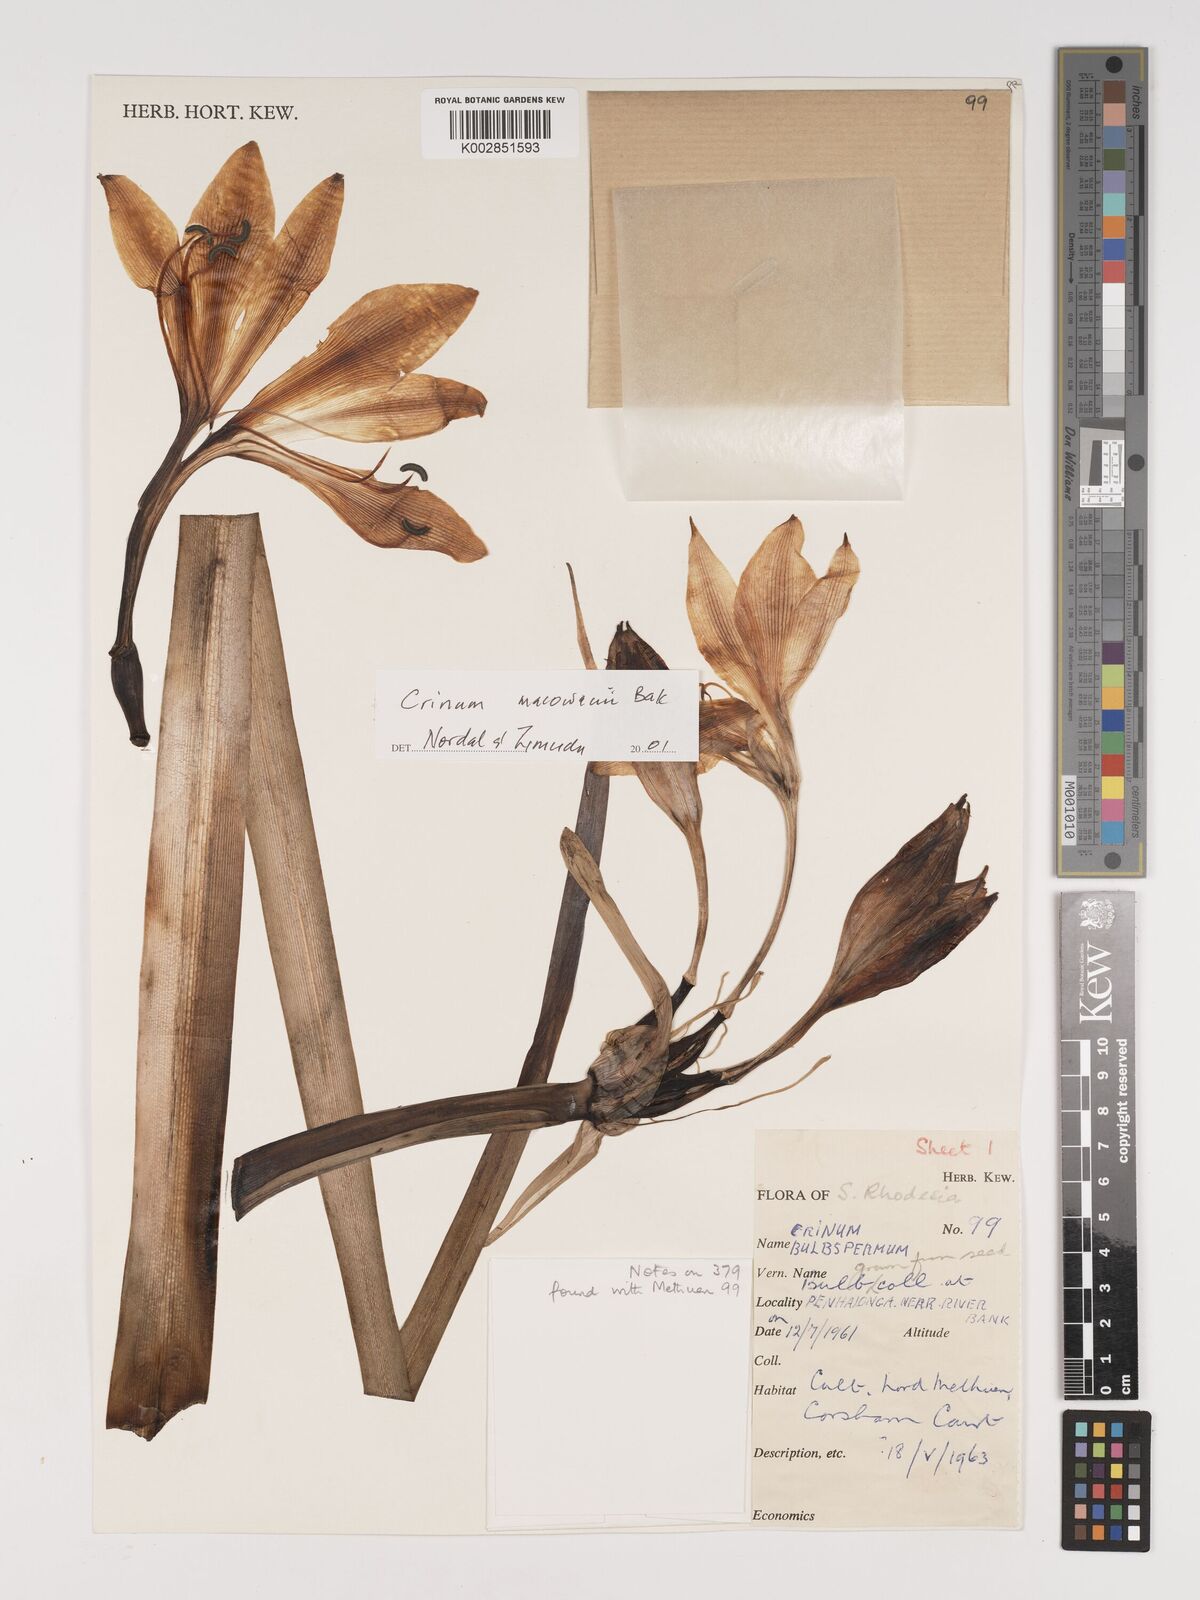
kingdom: Plantae
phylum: Tracheophyta
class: Liliopsida
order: Asparagales
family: Amaryllidaceae
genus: Crinum
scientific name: Crinum macowanii
